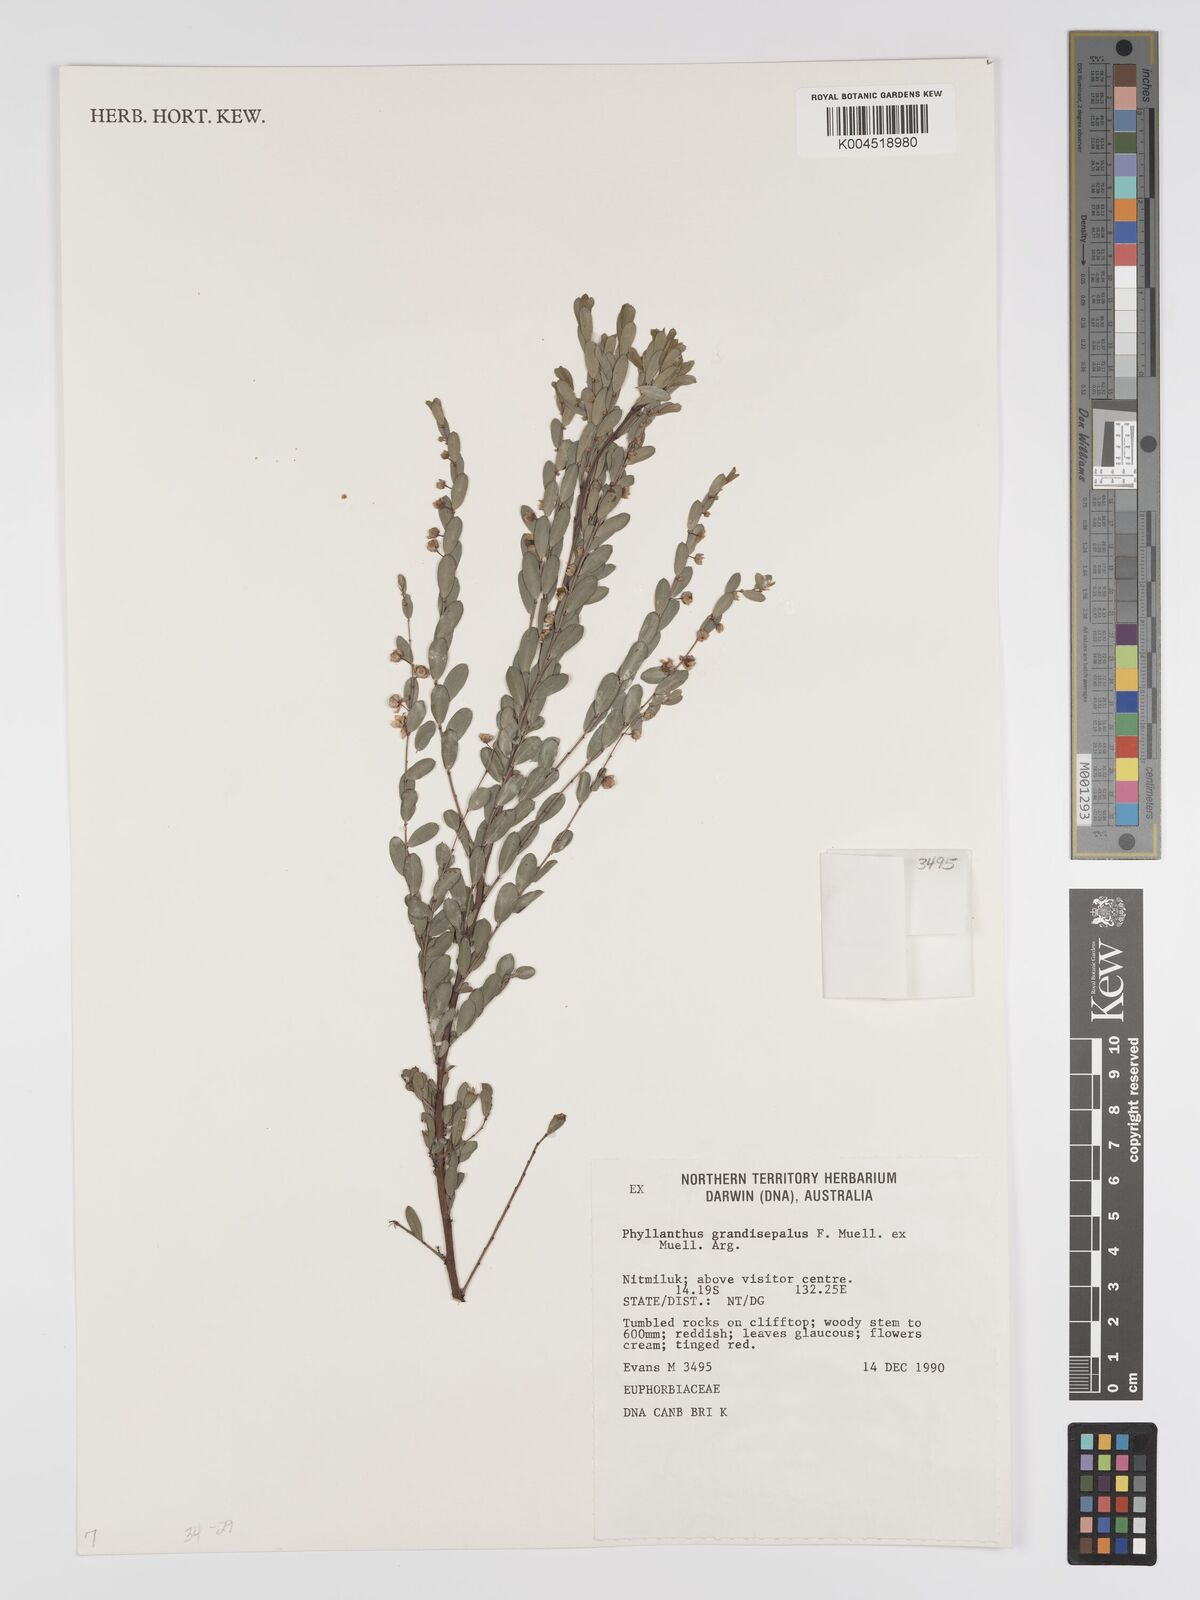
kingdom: Plantae
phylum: Tracheophyta
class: Magnoliopsida
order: Malpighiales
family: Phyllanthaceae
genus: Phyllanthus
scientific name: Phyllanthus carpentariae
